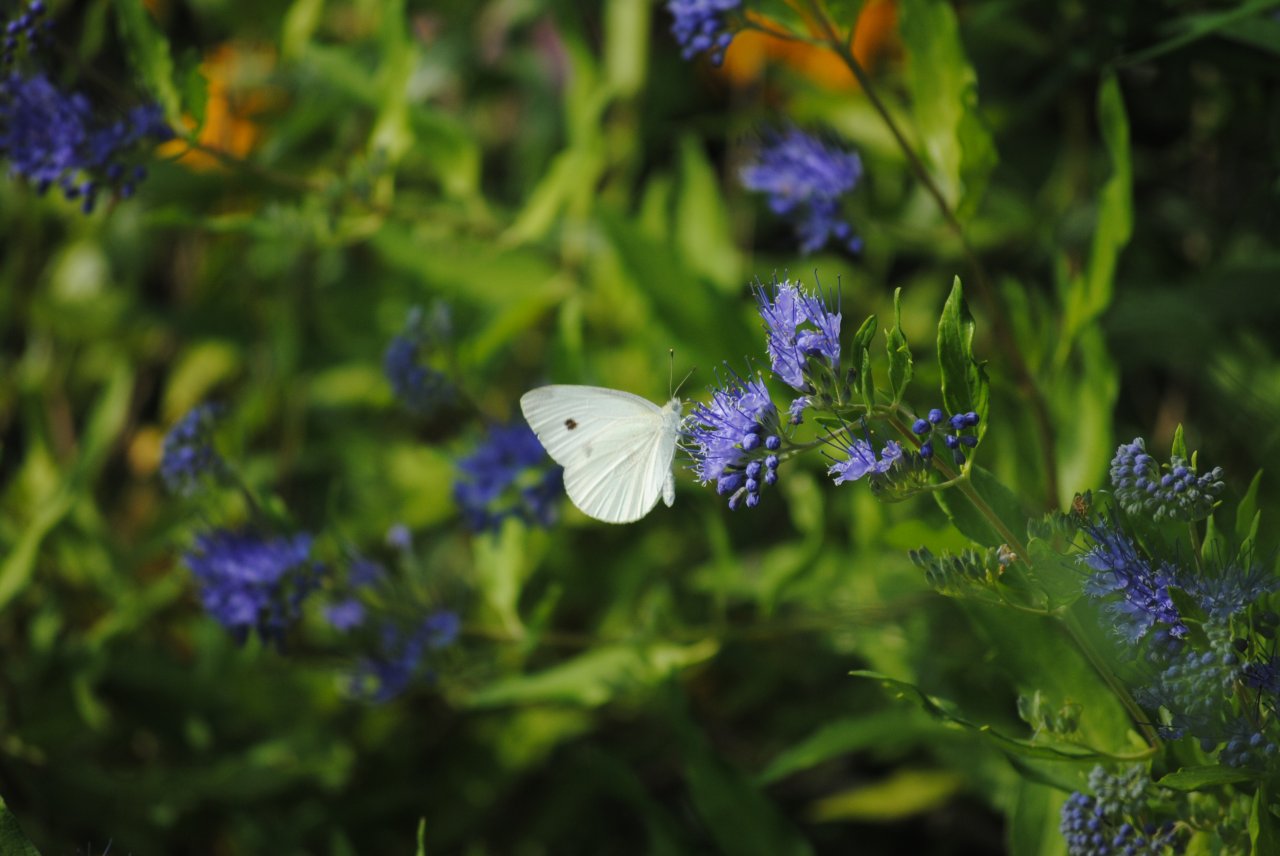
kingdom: Animalia
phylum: Arthropoda
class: Insecta
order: Lepidoptera
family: Pieridae
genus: Pieris
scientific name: Pieris rapae
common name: Cabbage White
